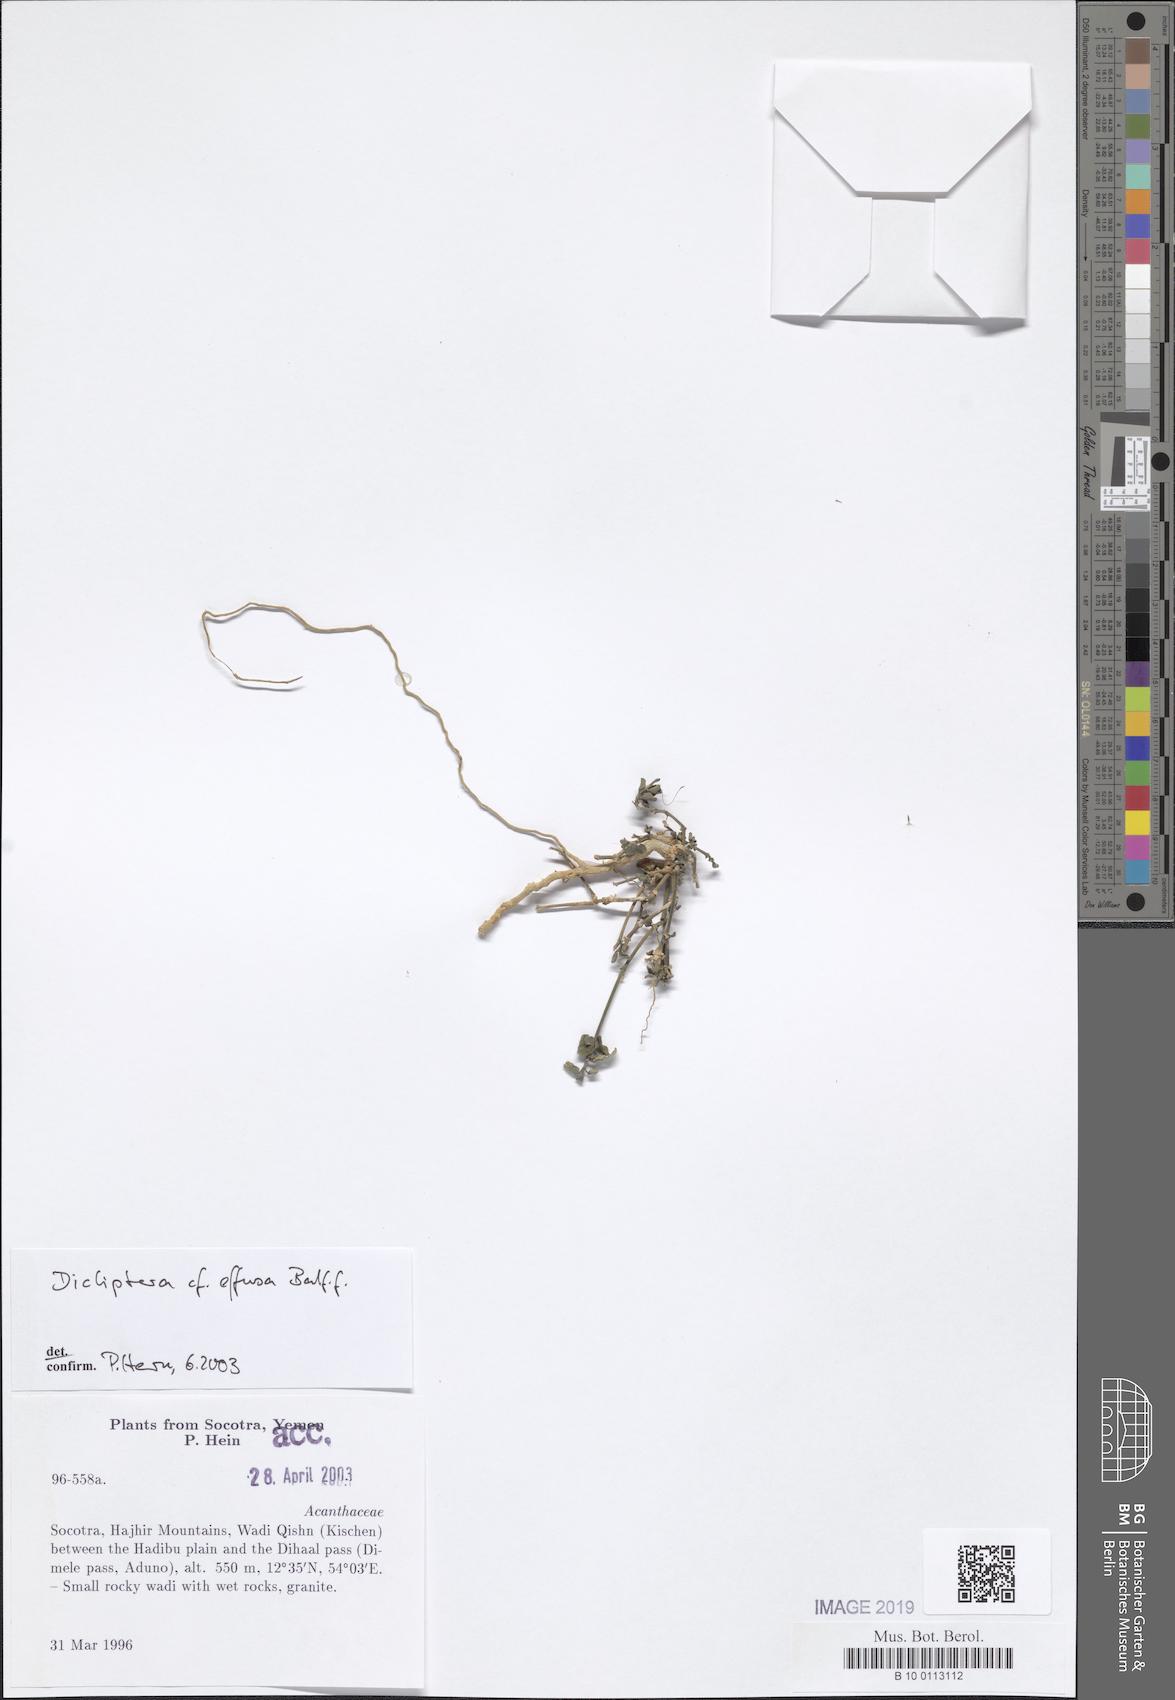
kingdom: Plantae
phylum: Tracheophyta
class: Magnoliopsida
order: Lamiales
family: Acanthaceae
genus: Dicliptera
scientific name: Dicliptera effusa
